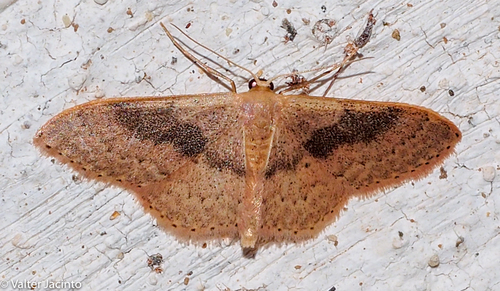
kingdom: Animalia
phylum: Arthropoda
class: Insecta
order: Lepidoptera
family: Geometridae
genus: Idaea
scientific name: Idaea eugeniata
